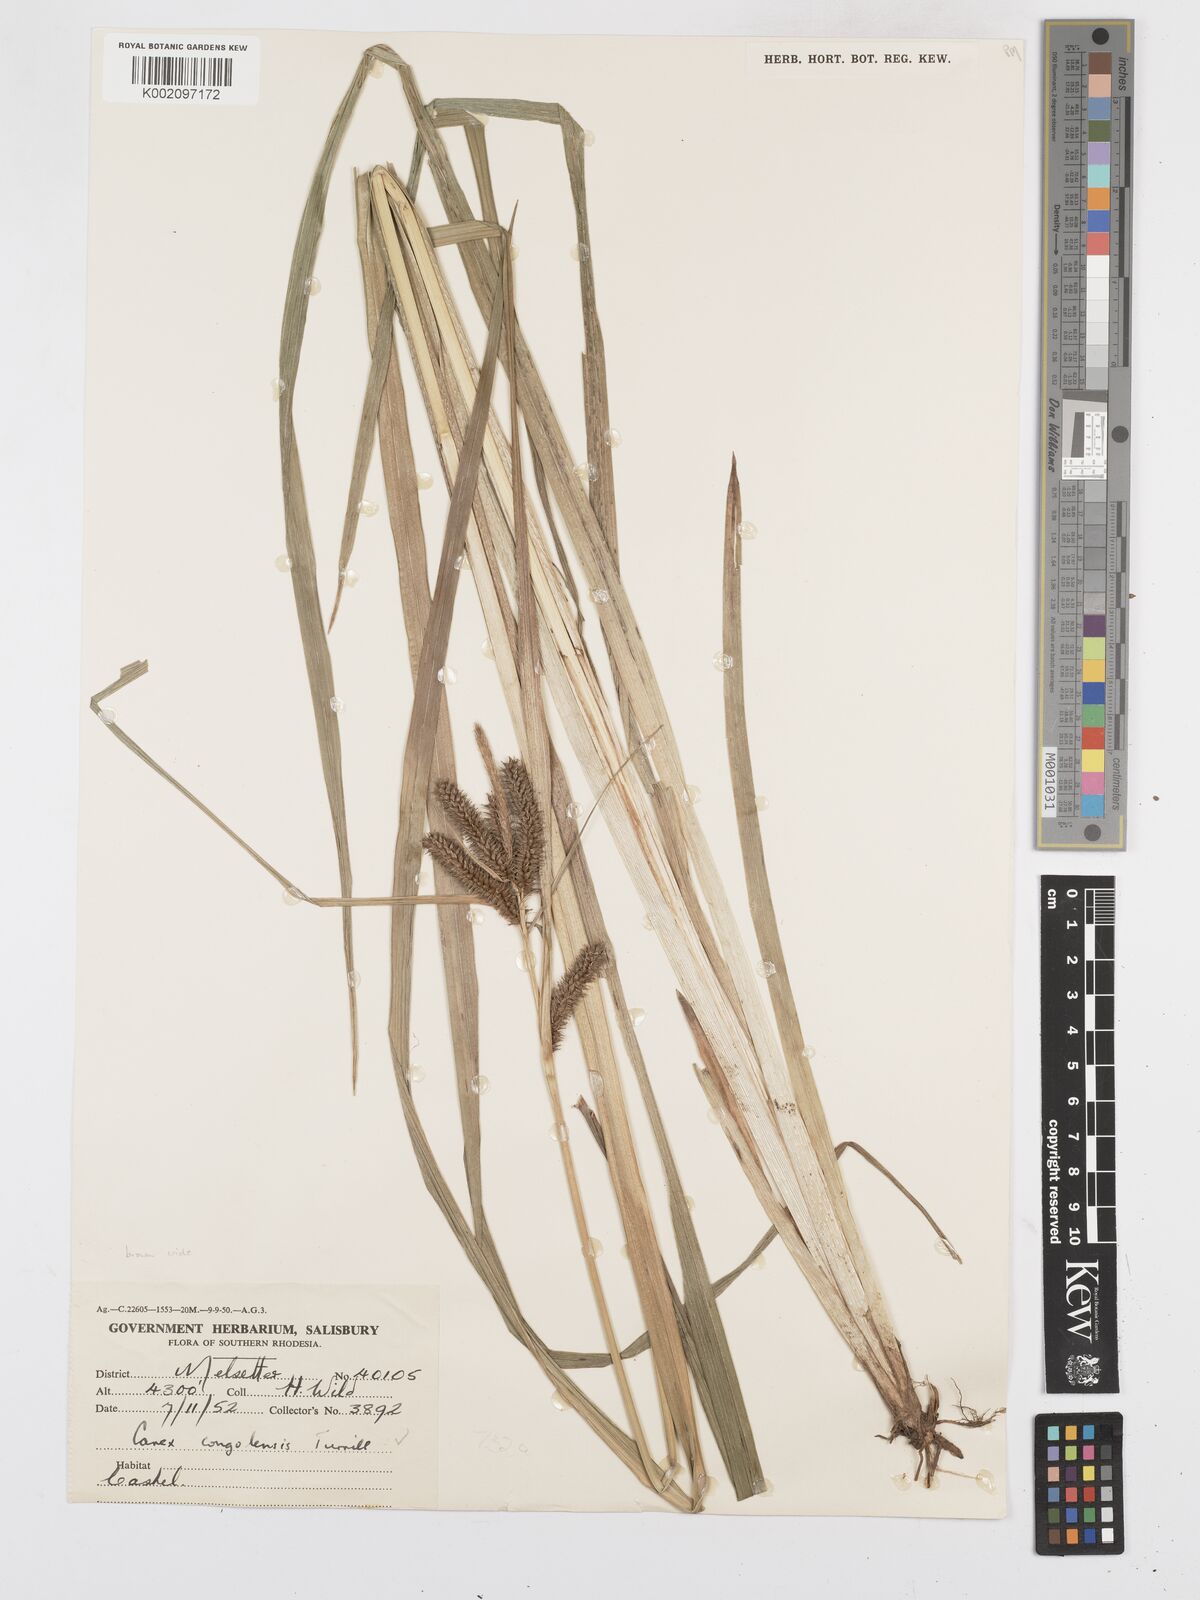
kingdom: Plantae
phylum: Tracheophyta
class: Liliopsida
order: Poales
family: Cyperaceae
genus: Carex
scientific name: Carex congolensis
